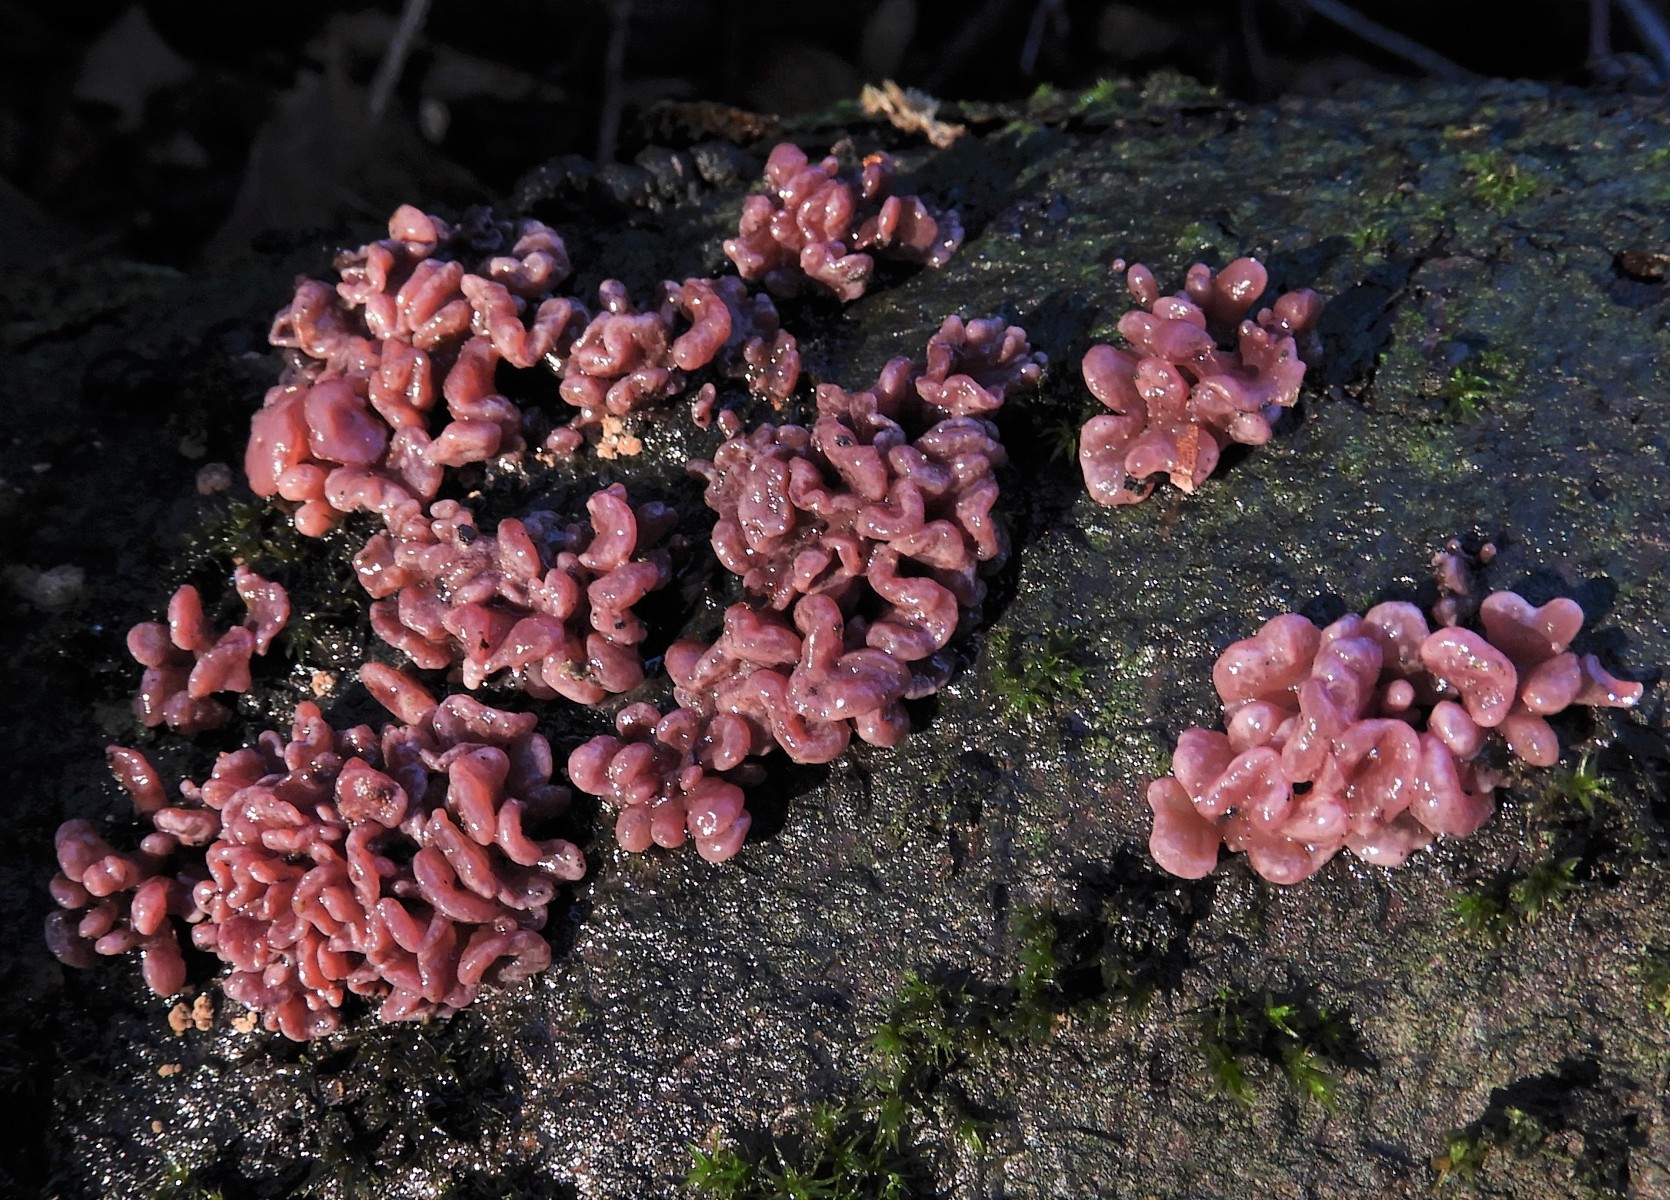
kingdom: Fungi
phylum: Ascomycota
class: Leotiomycetes
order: Helotiales
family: Gelatinodiscaceae
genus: Ascocoryne
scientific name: Ascocoryne sarcoides
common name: rødlilla sejskive
